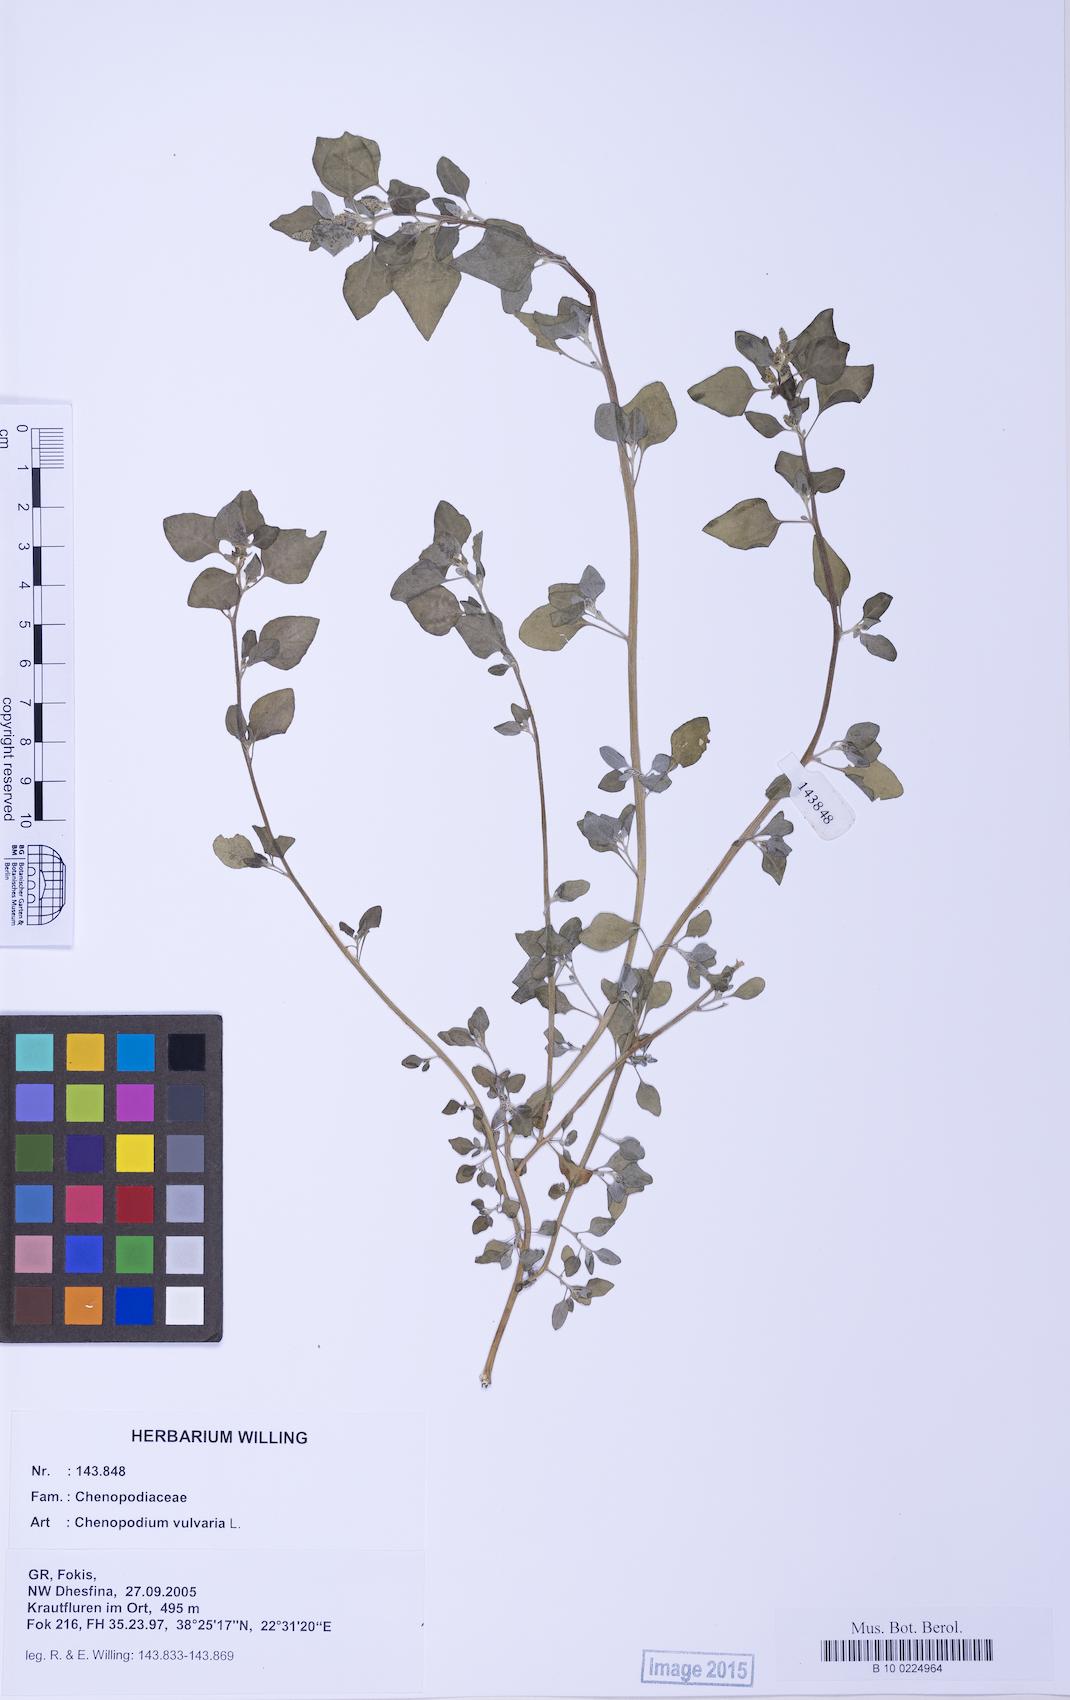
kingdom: Plantae
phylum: Tracheophyta
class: Magnoliopsida
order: Caryophyllales
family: Amaranthaceae
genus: Chenopodium
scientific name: Chenopodium vulvaria
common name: Stinking goosefoot
